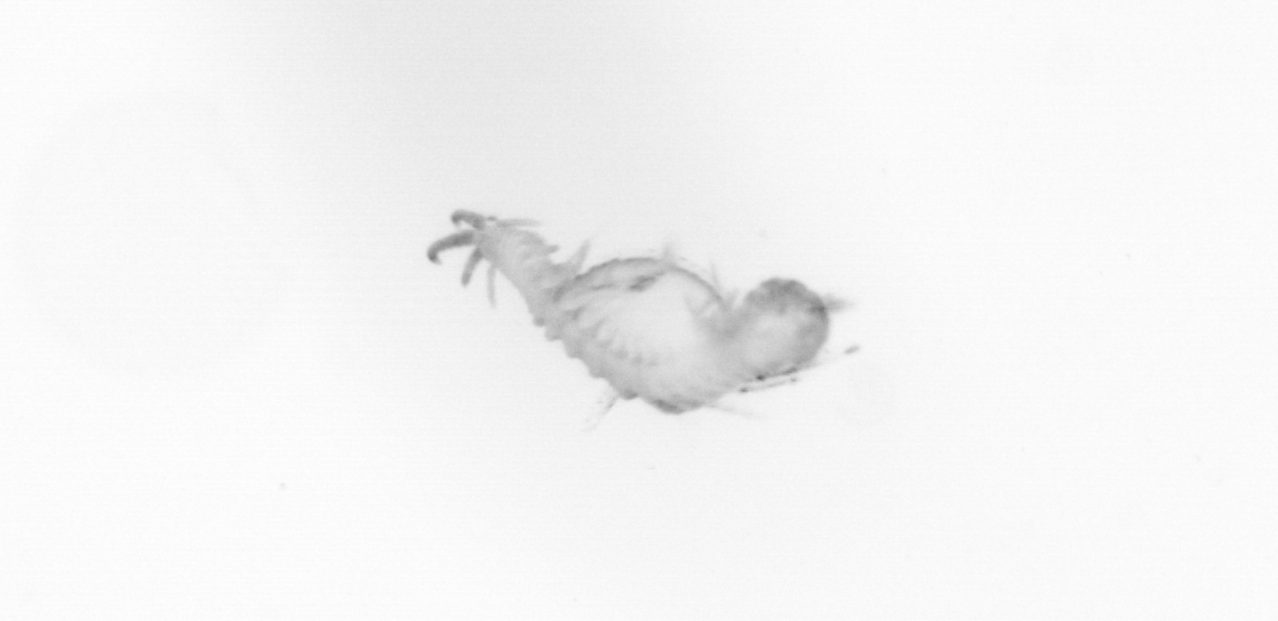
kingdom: Animalia
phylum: Annelida
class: Polychaeta
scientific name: Polychaeta
